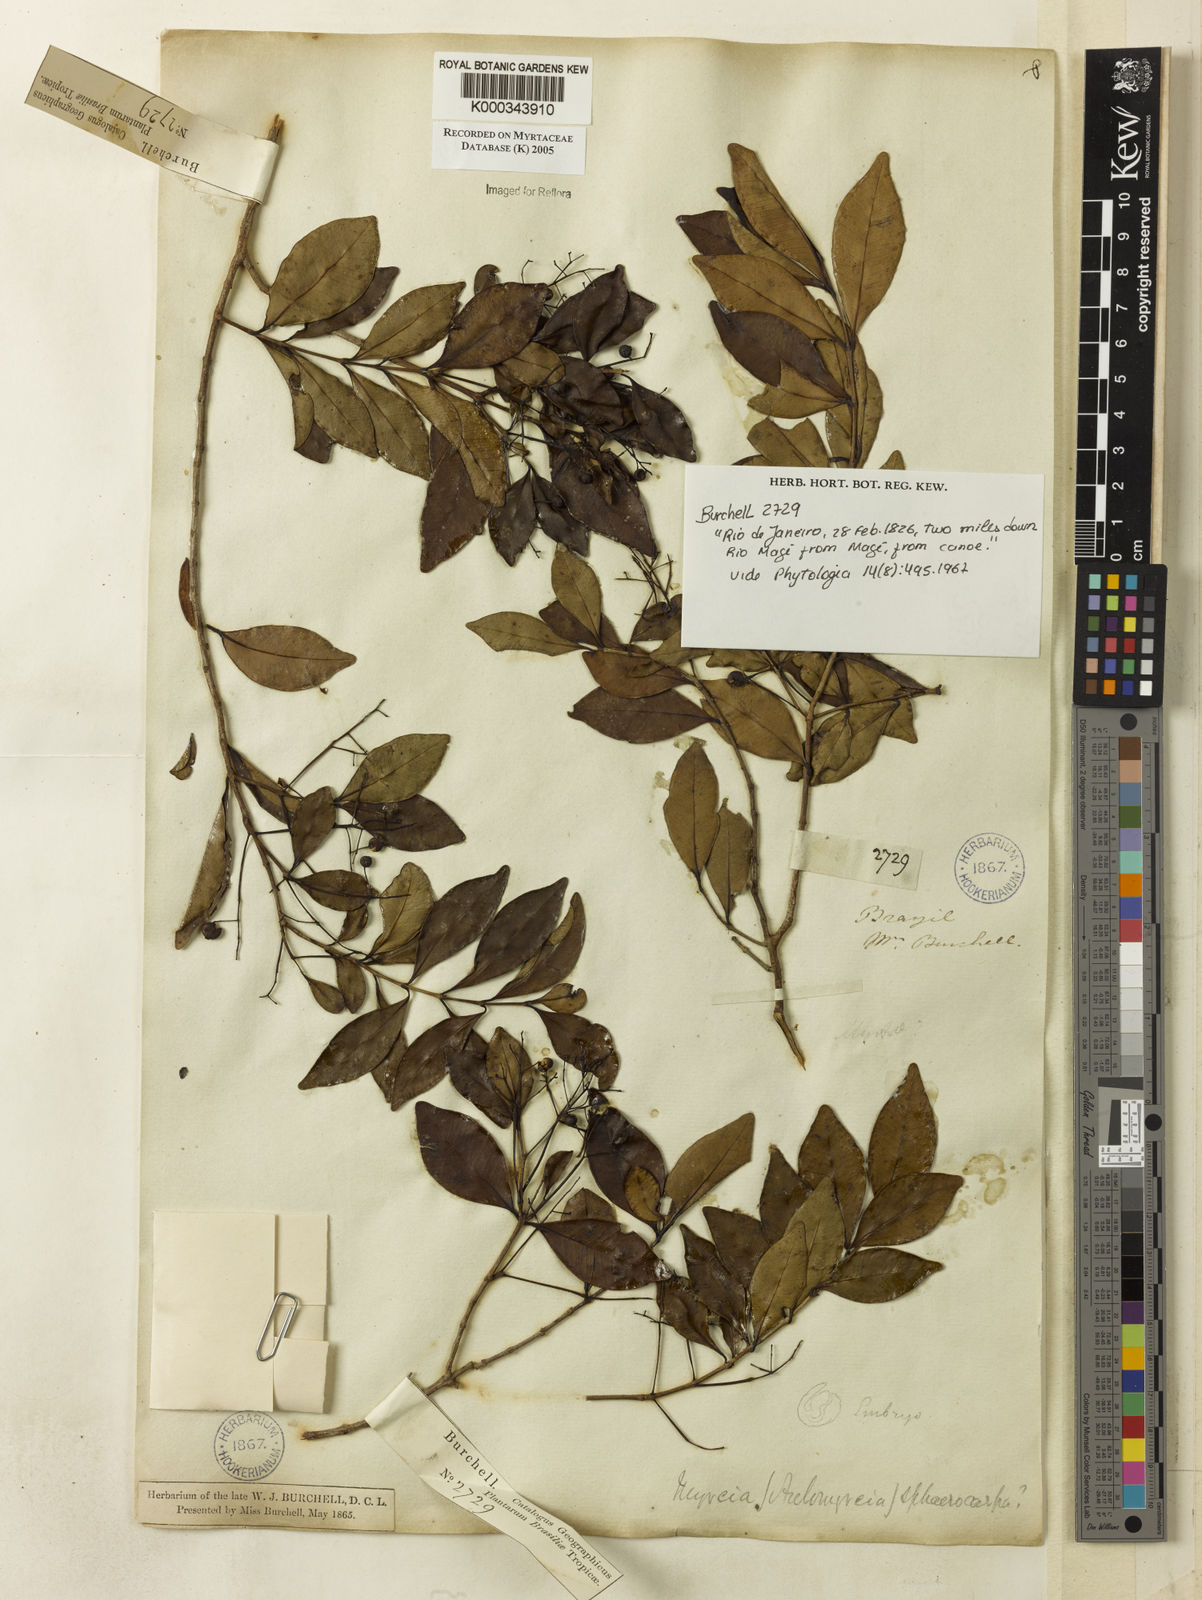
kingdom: Plantae
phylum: Tracheophyta
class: Magnoliopsida
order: Myrtales
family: Myrtaceae
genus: Myrcia
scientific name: Myrcia multiflora
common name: Pedra hume
